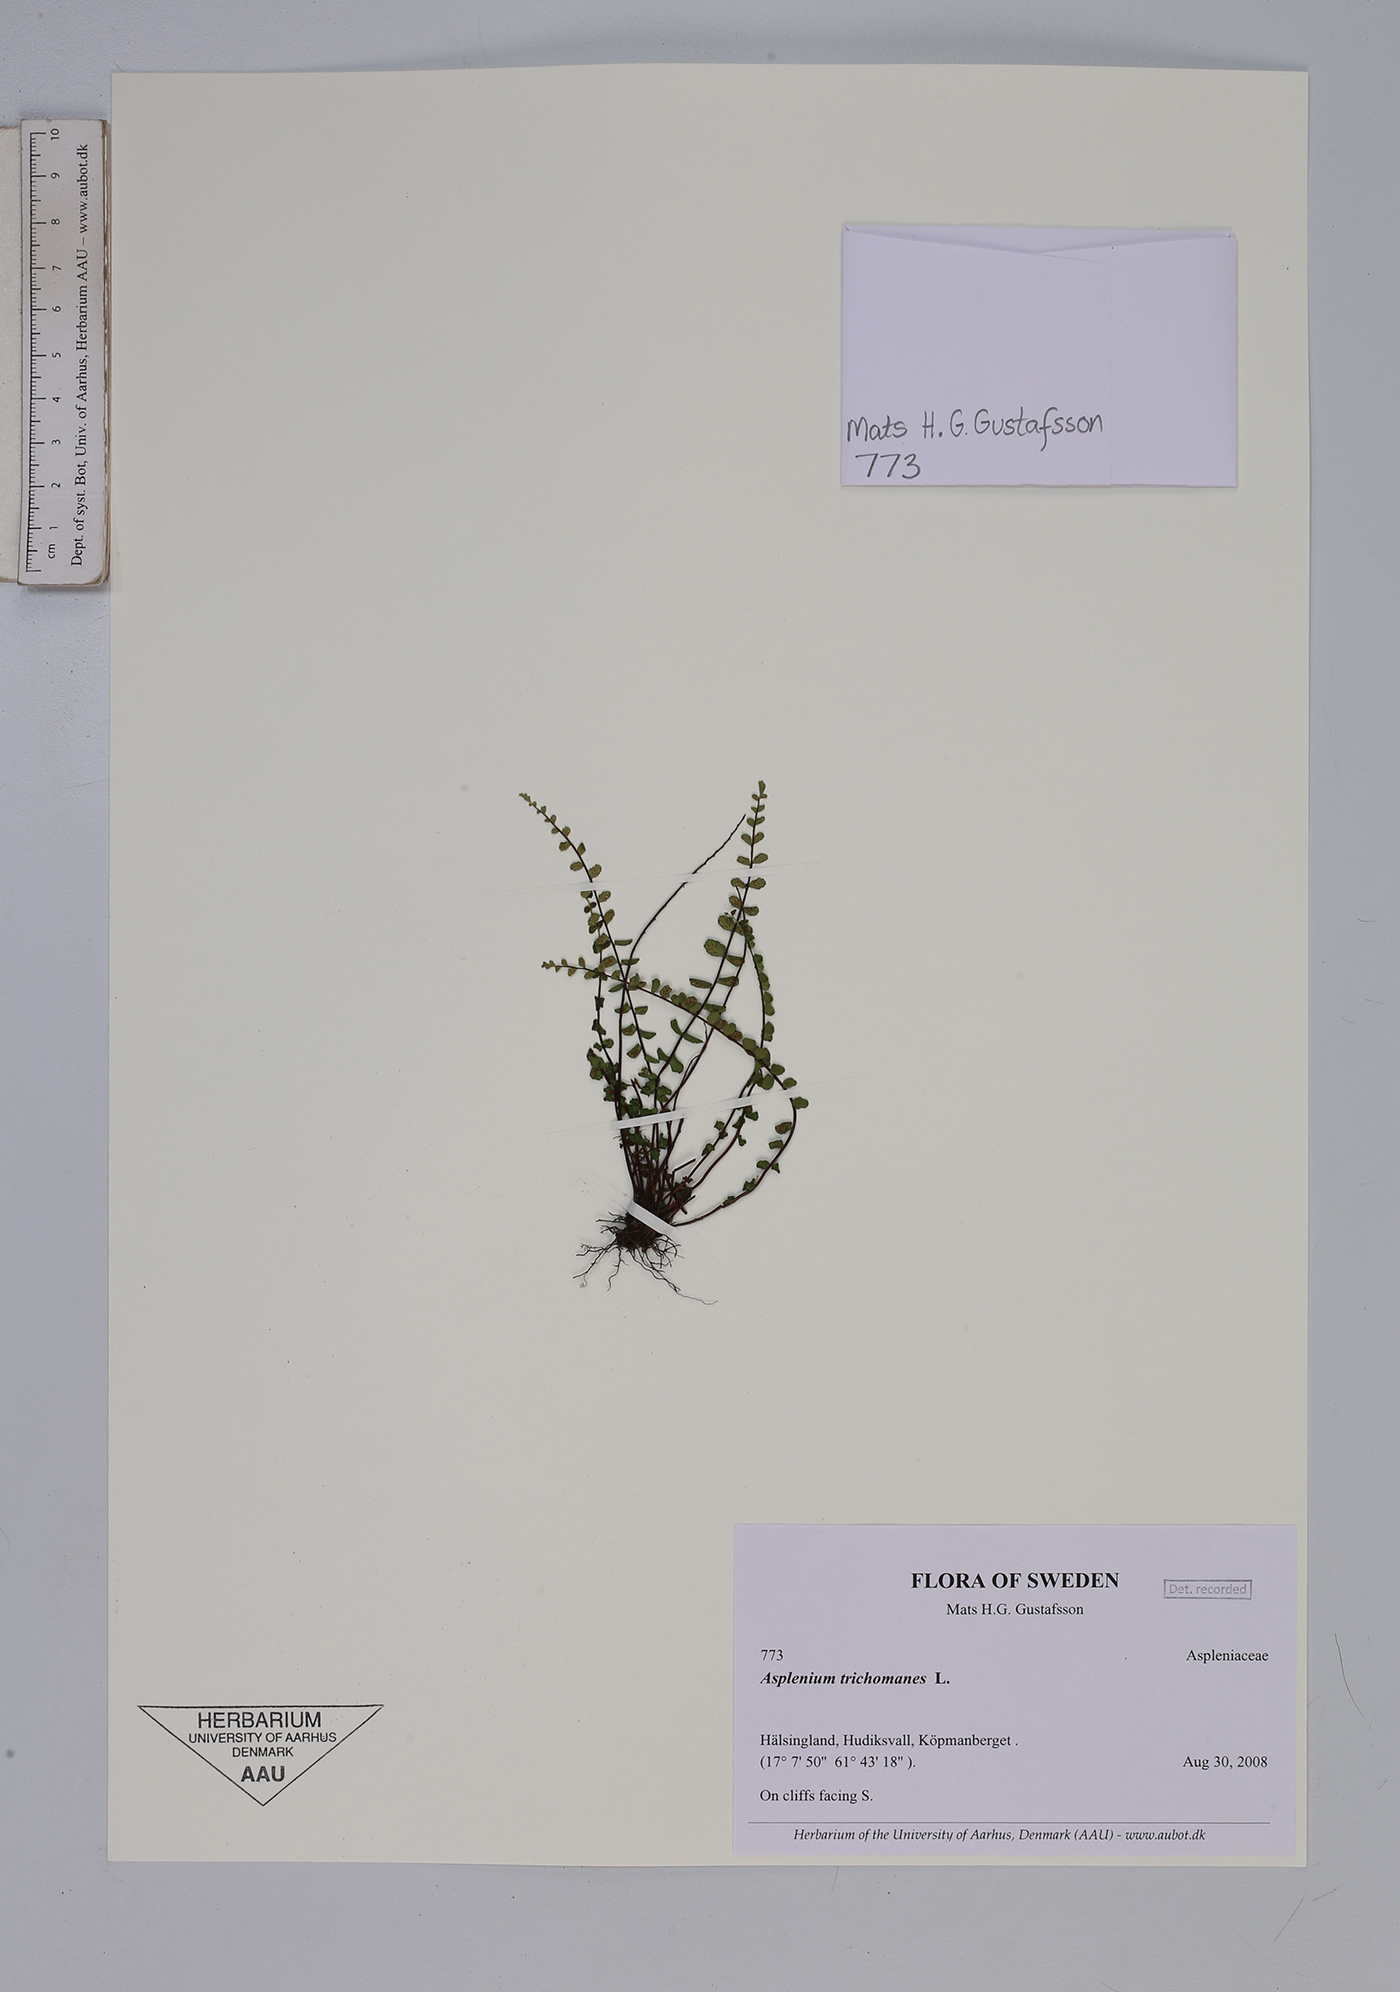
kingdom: Plantae
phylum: Tracheophyta
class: Polypodiopsida
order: Polypodiales
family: Aspleniaceae
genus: Asplenium
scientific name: Asplenium trichomanes
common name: Maidenhair spleenwort
